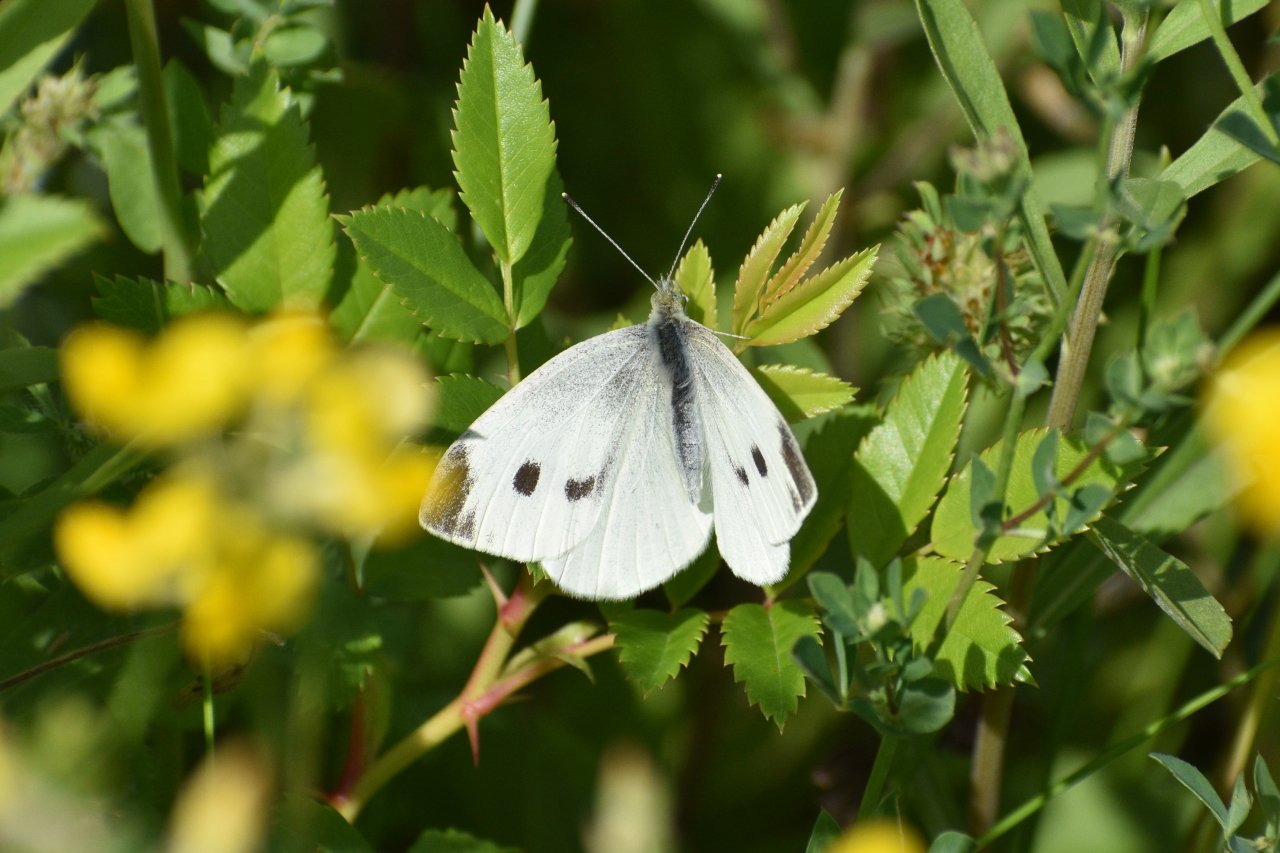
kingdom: Animalia
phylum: Arthropoda
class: Insecta
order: Lepidoptera
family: Pieridae
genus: Pieris
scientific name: Pieris rapae
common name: Cabbage White
